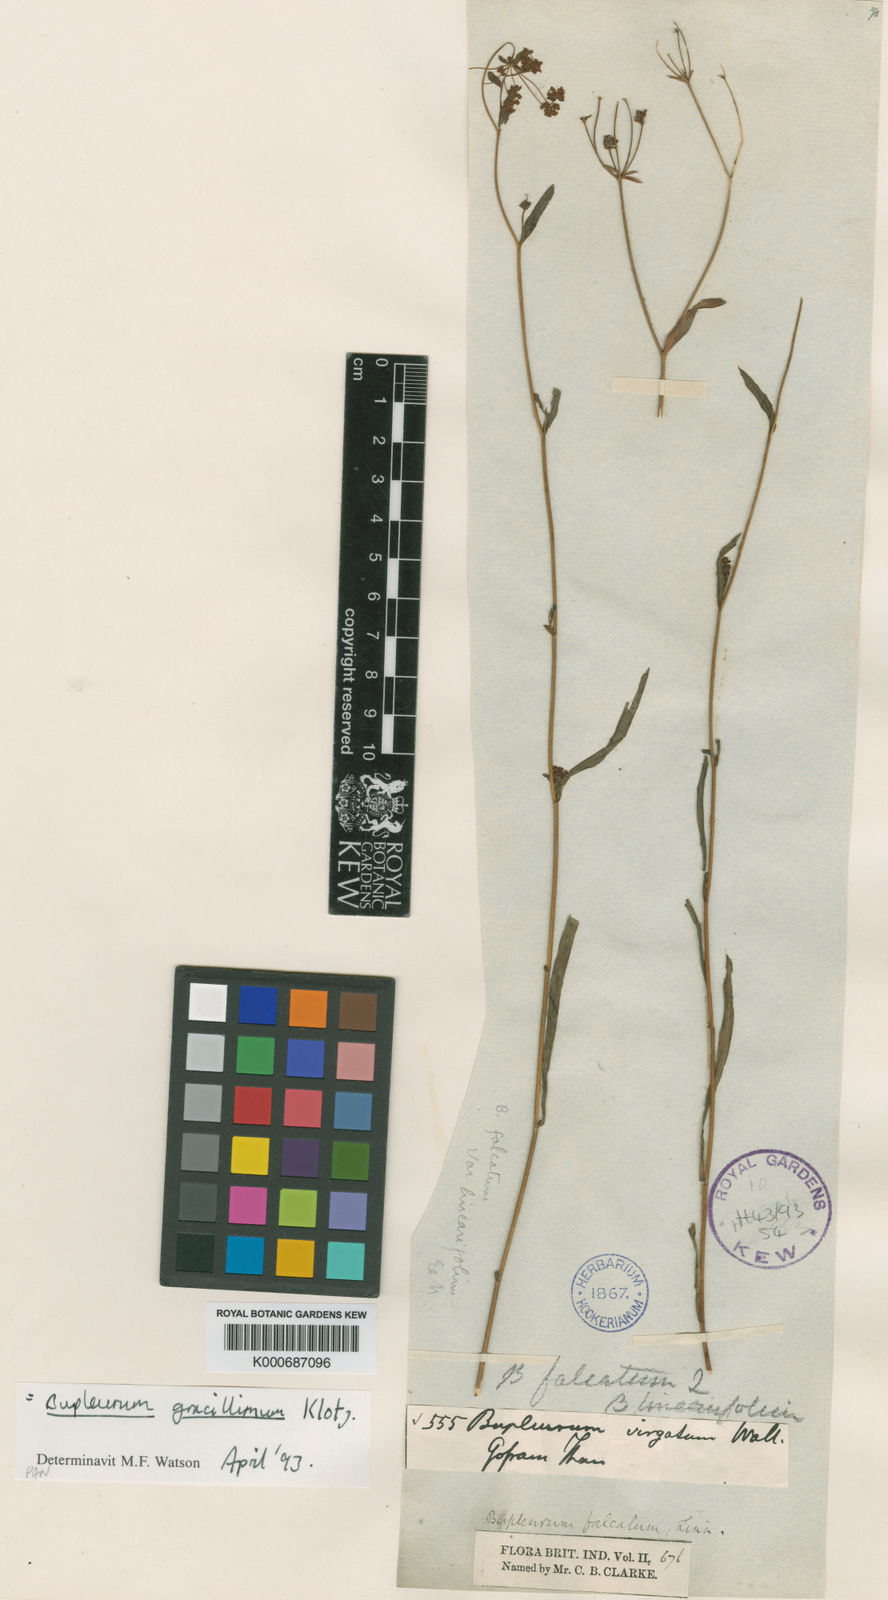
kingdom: Plantae
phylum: Tracheophyta
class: Magnoliopsida
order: Apiales
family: Apiaceae
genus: Bupleurum
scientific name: Bupleurum gracillimum
